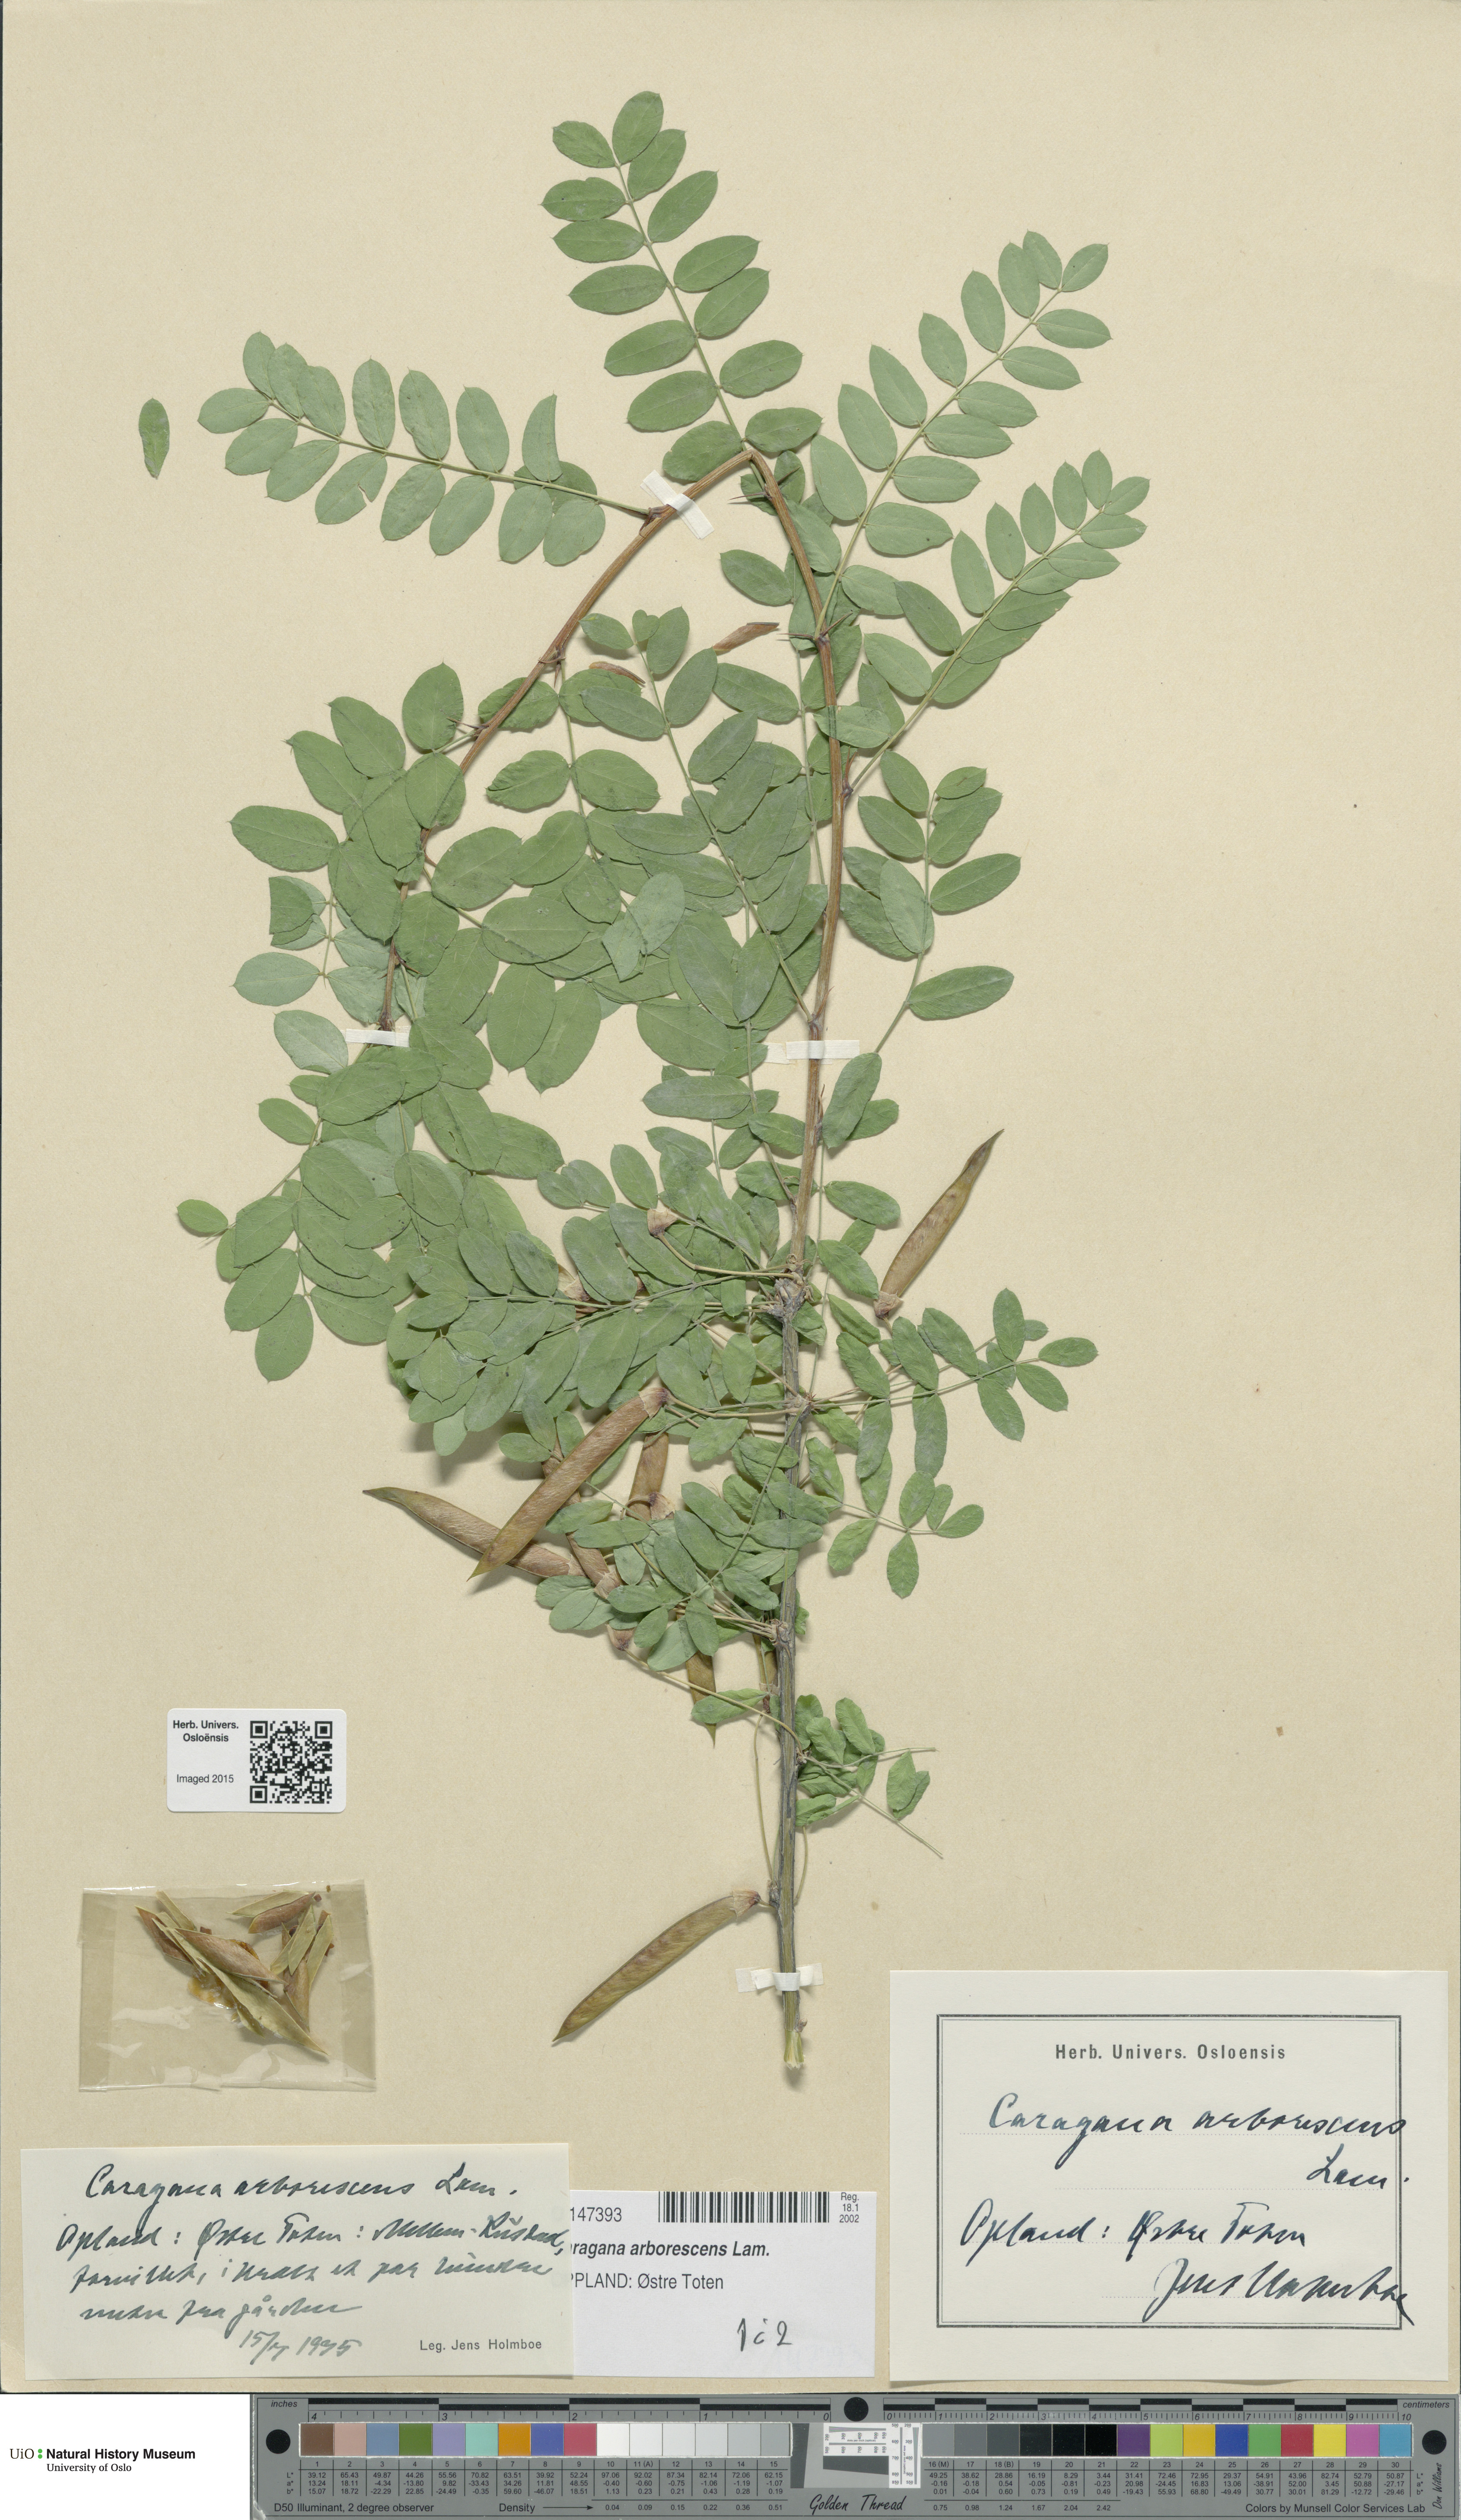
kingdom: Plantae
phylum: Tracheophyta
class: Magnoliopsida
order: Fabales
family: Fabaceae
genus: Caragana
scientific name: Caragana arborescens
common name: Siberian peashrub
